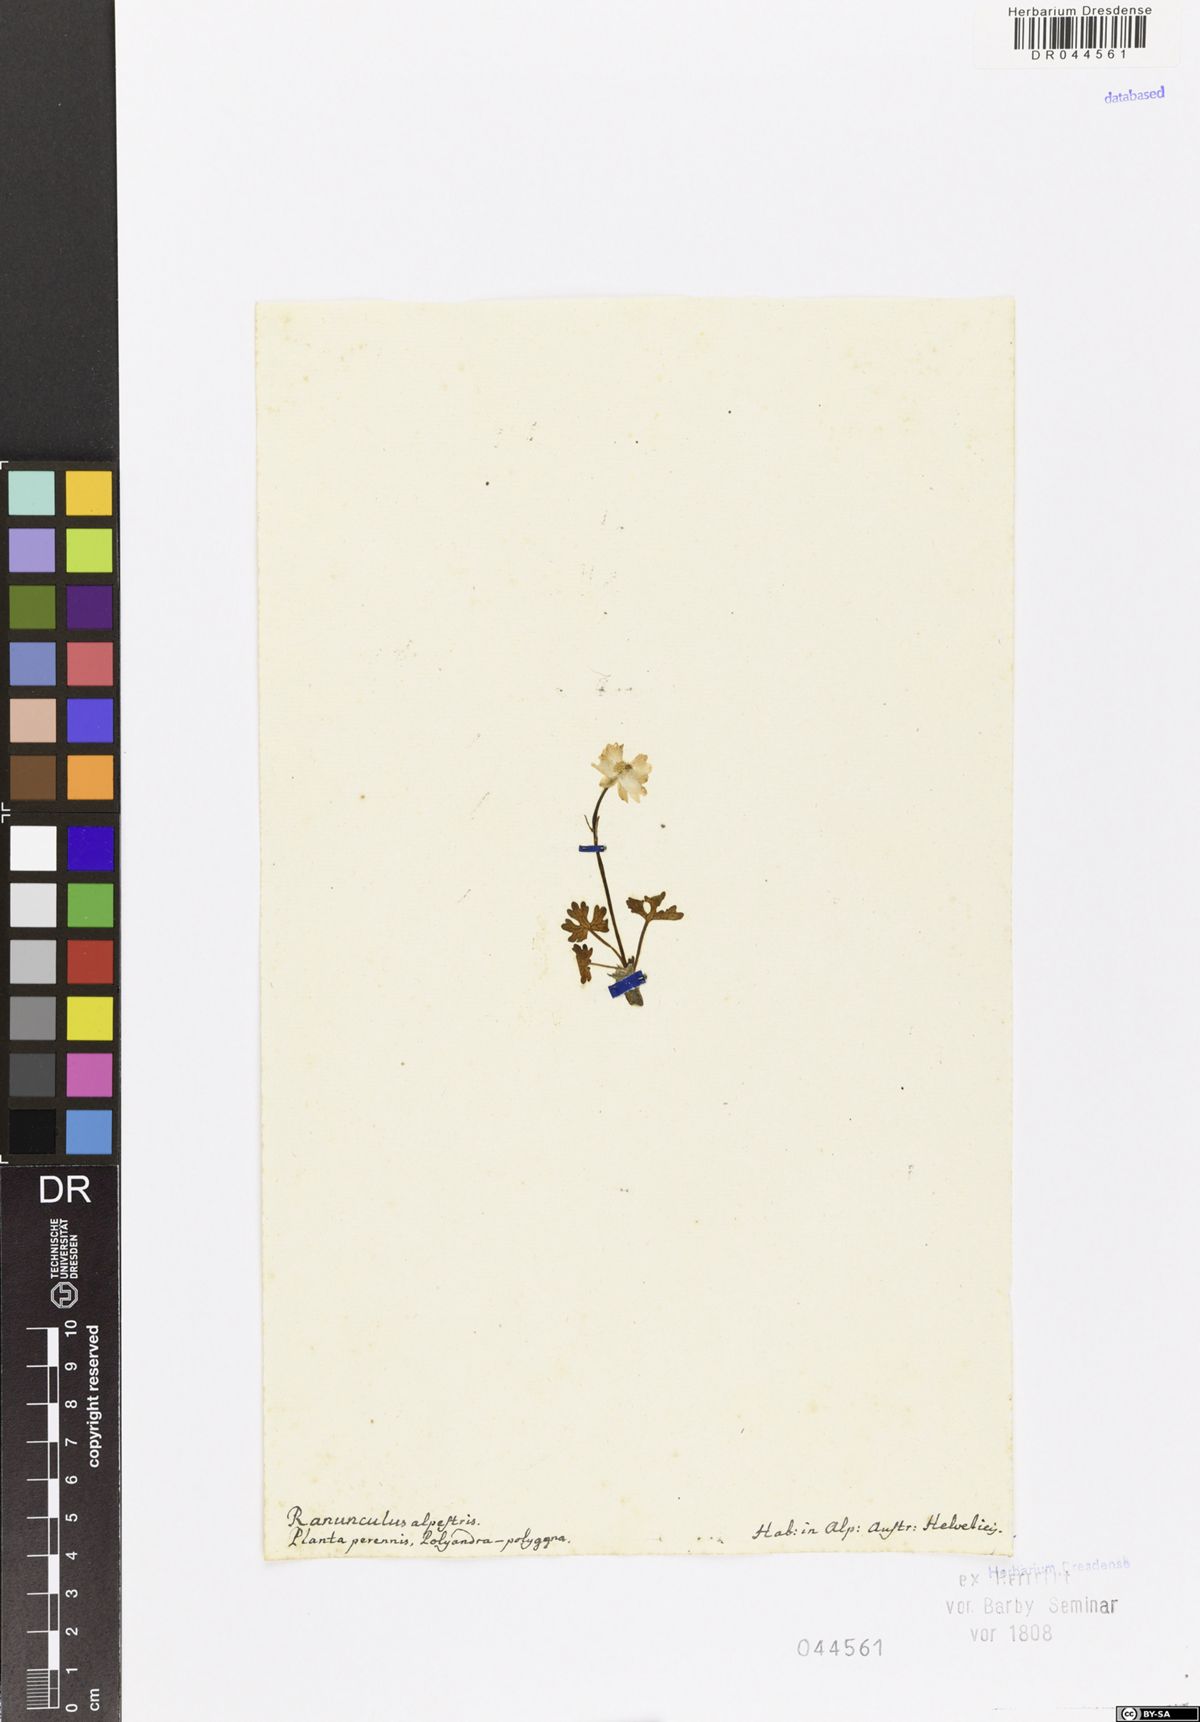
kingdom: Plantae
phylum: Tracheophyta
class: Magnoliopsida
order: Ranunculales
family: Ranunculaceae
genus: Ranunculus
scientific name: Ranunculus alpestris
